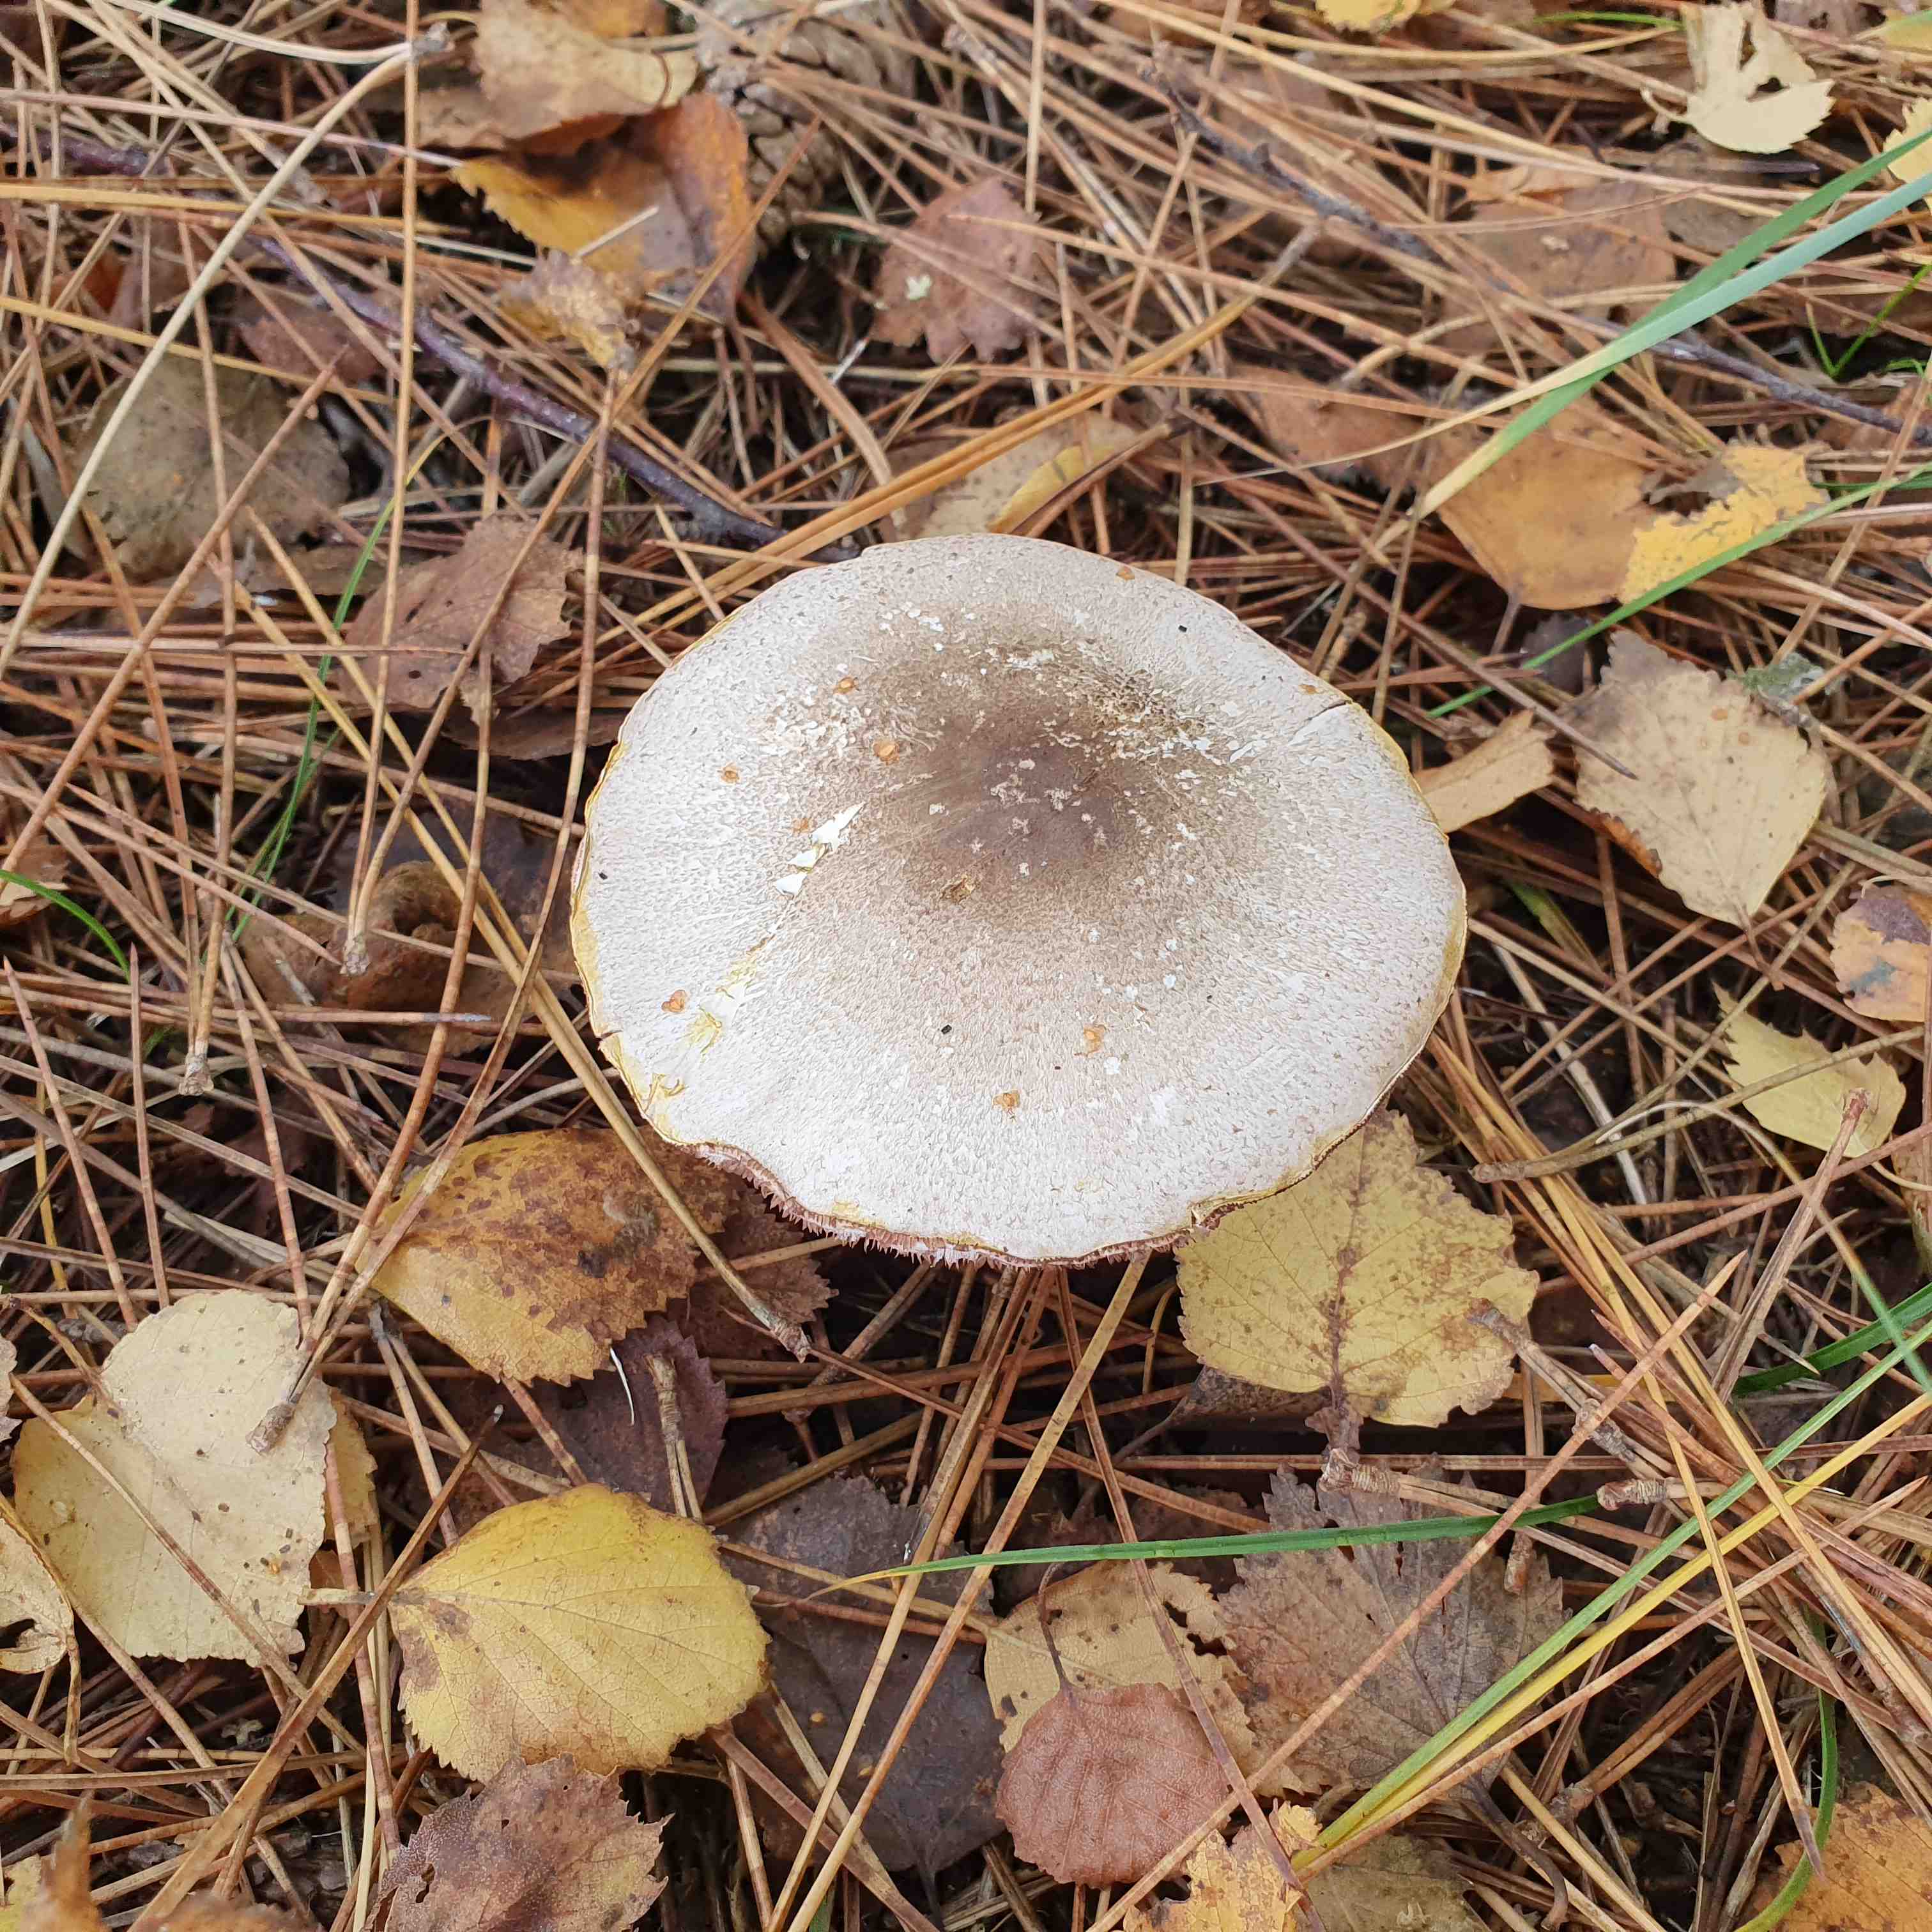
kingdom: Fungi
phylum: Basidiomycota
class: Agaricomycetes
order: Agaricales
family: Agaricaceae
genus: Agaricus
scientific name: Agaricus moelleri
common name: perlehøne-champignon
